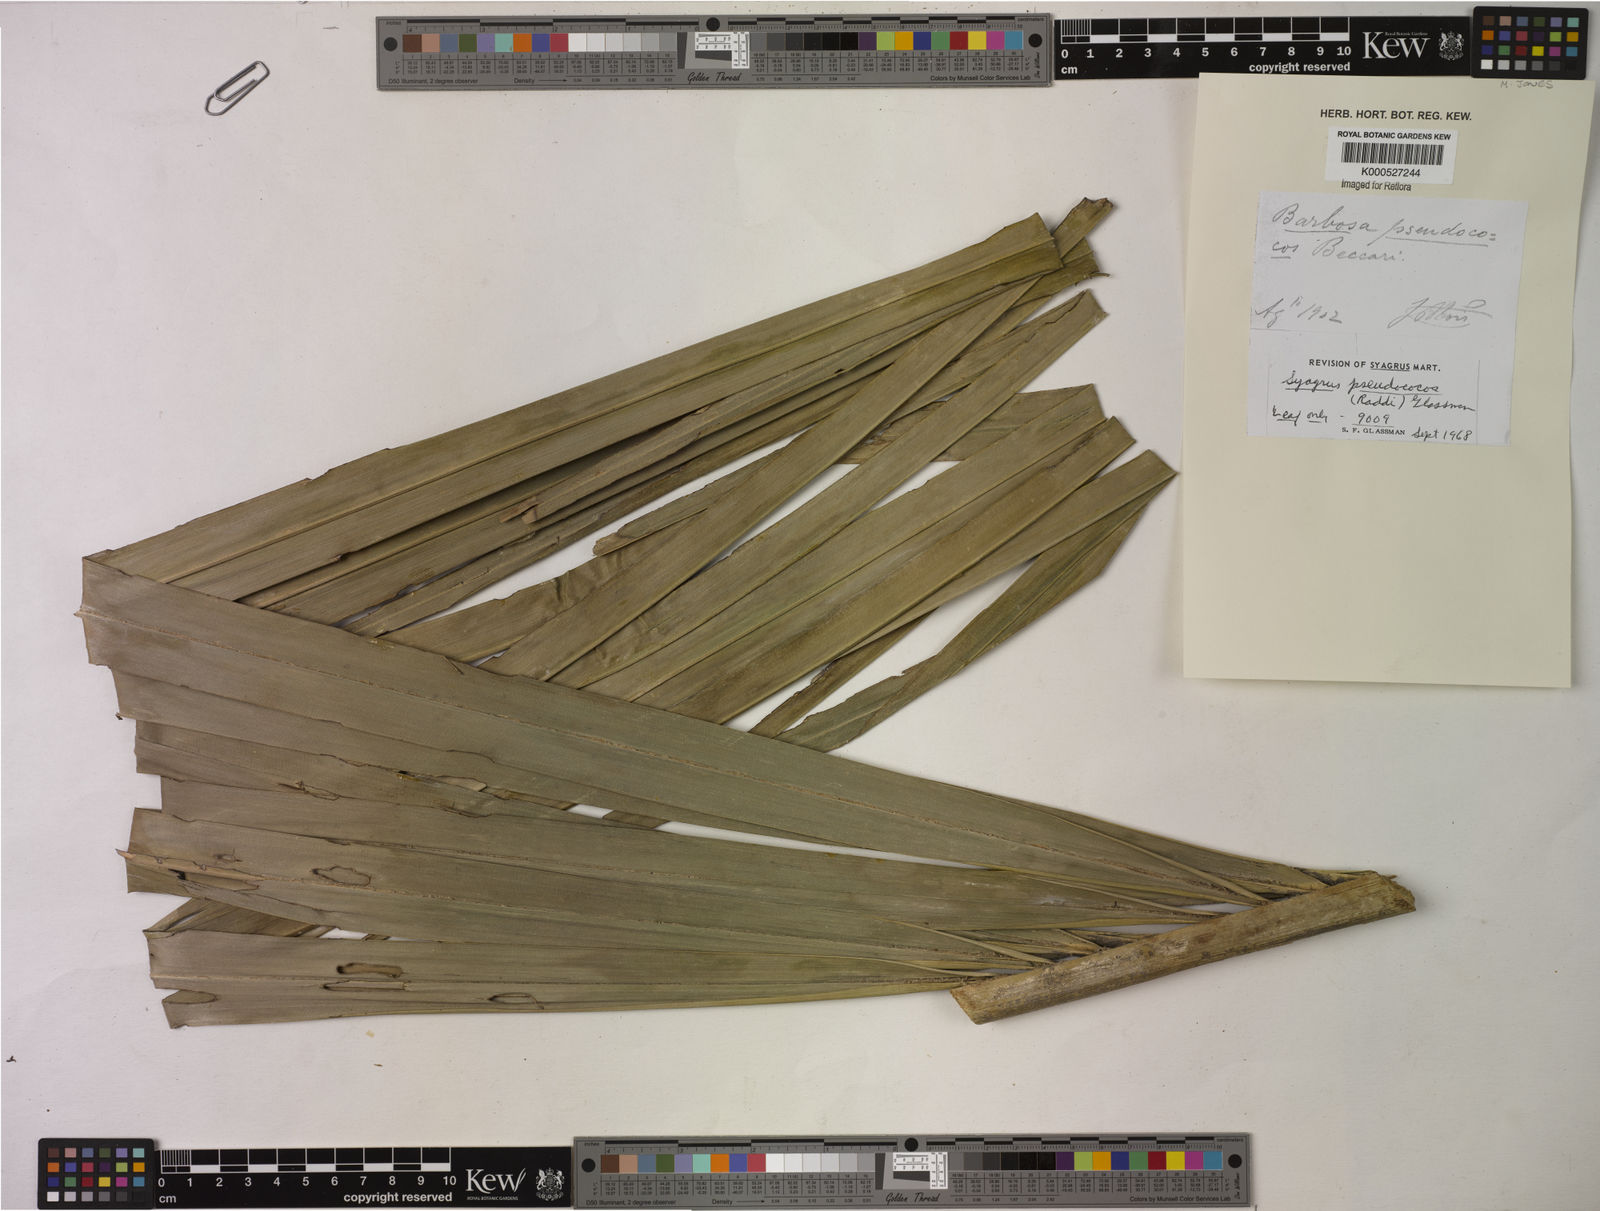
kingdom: Plantae
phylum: Tracheophyta
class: Liliopsida
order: Arecales
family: Arecaceae
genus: Syagrus
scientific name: Syagrus inajai
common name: Pupunha palm
